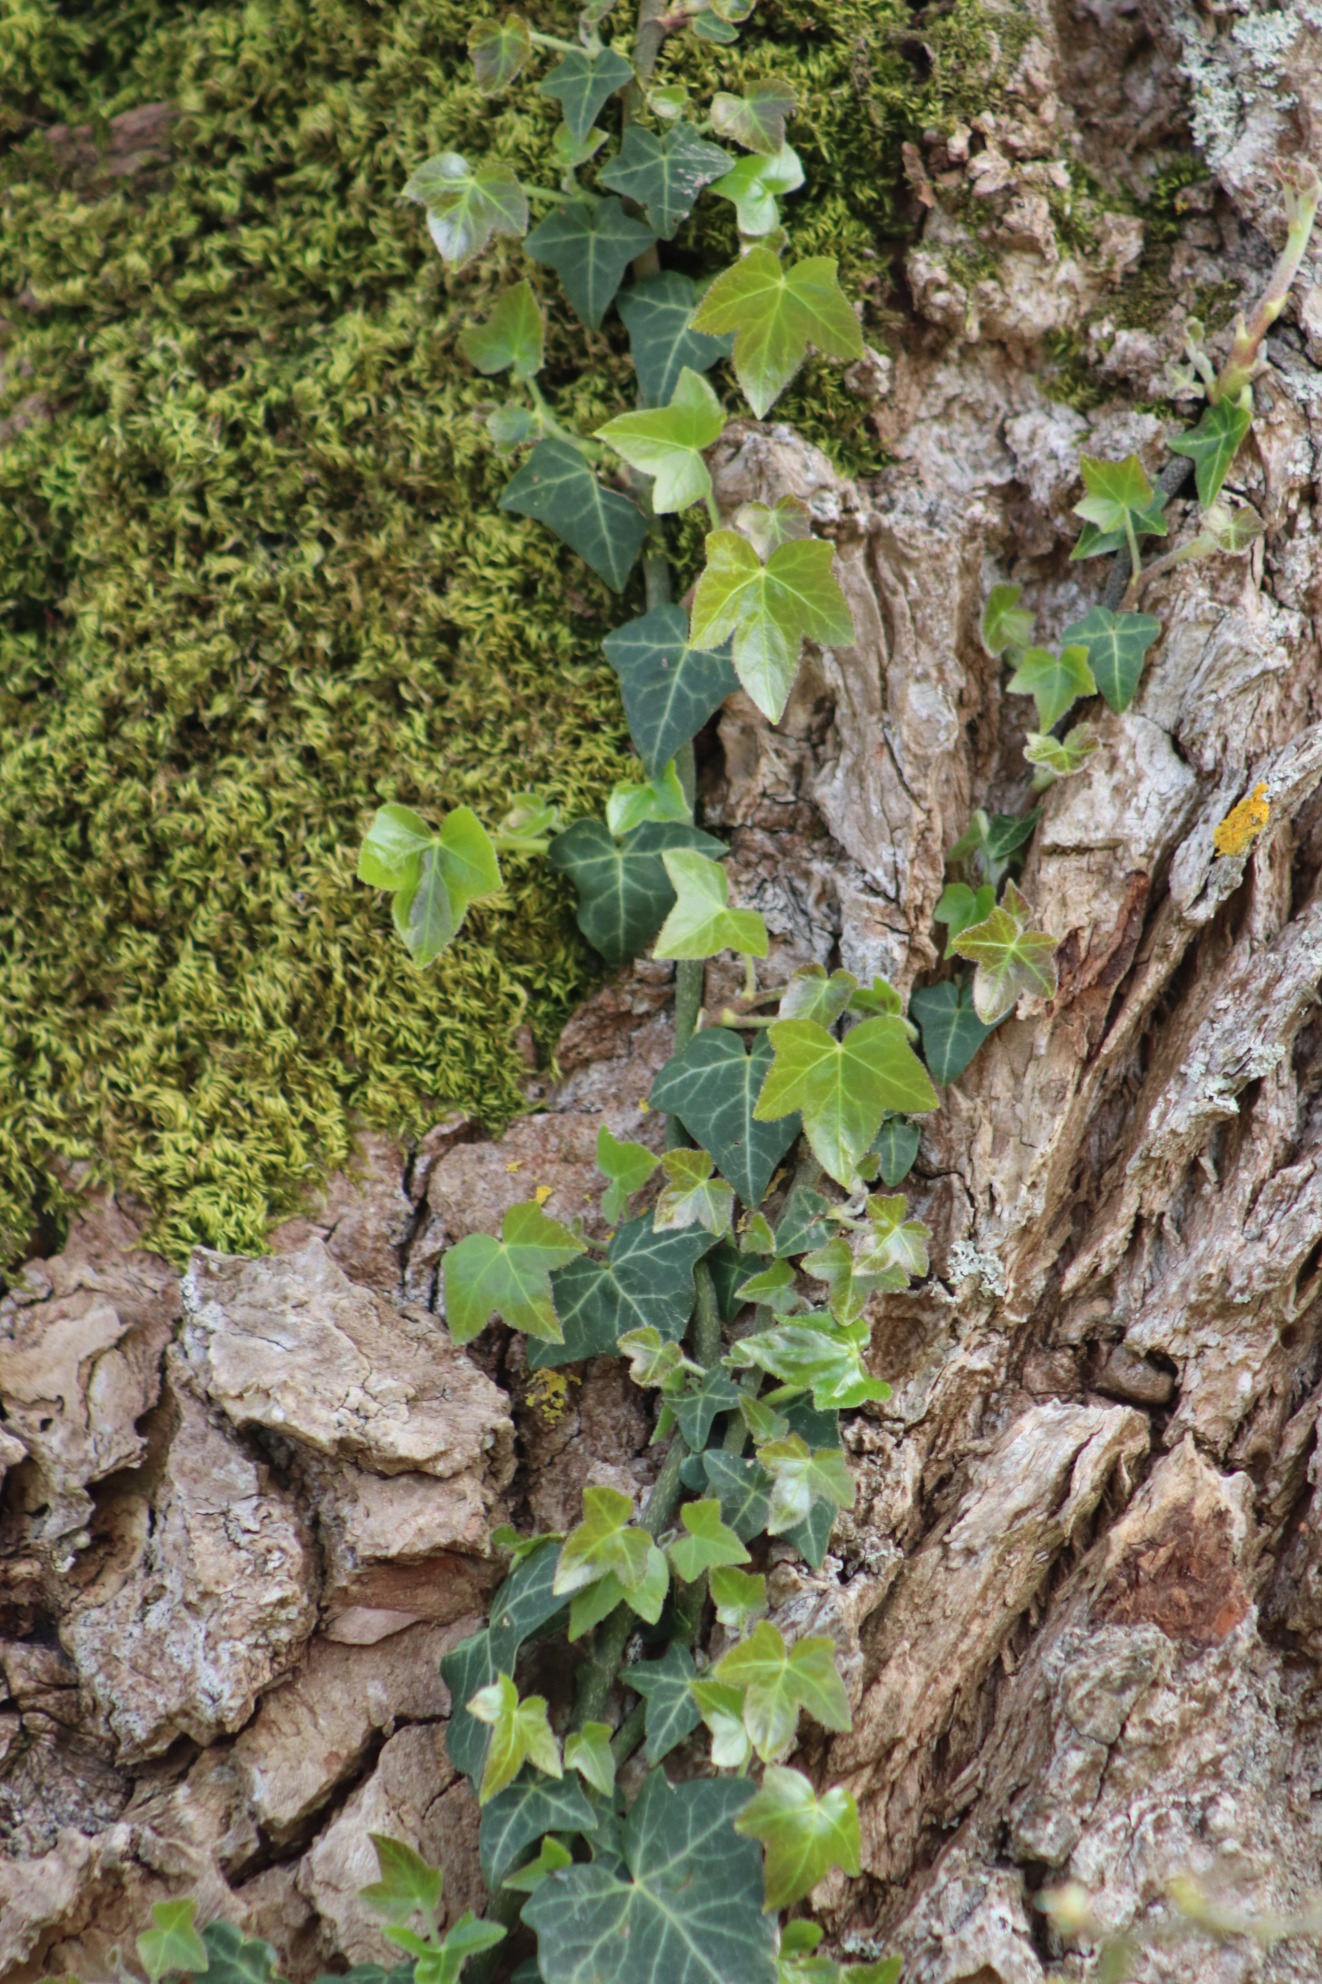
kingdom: Plantae
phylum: Tracheophyta
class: Magnoliopsida
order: Apiales
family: Araliaceae
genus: Hedera
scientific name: Hedera helix
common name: Vedbend
